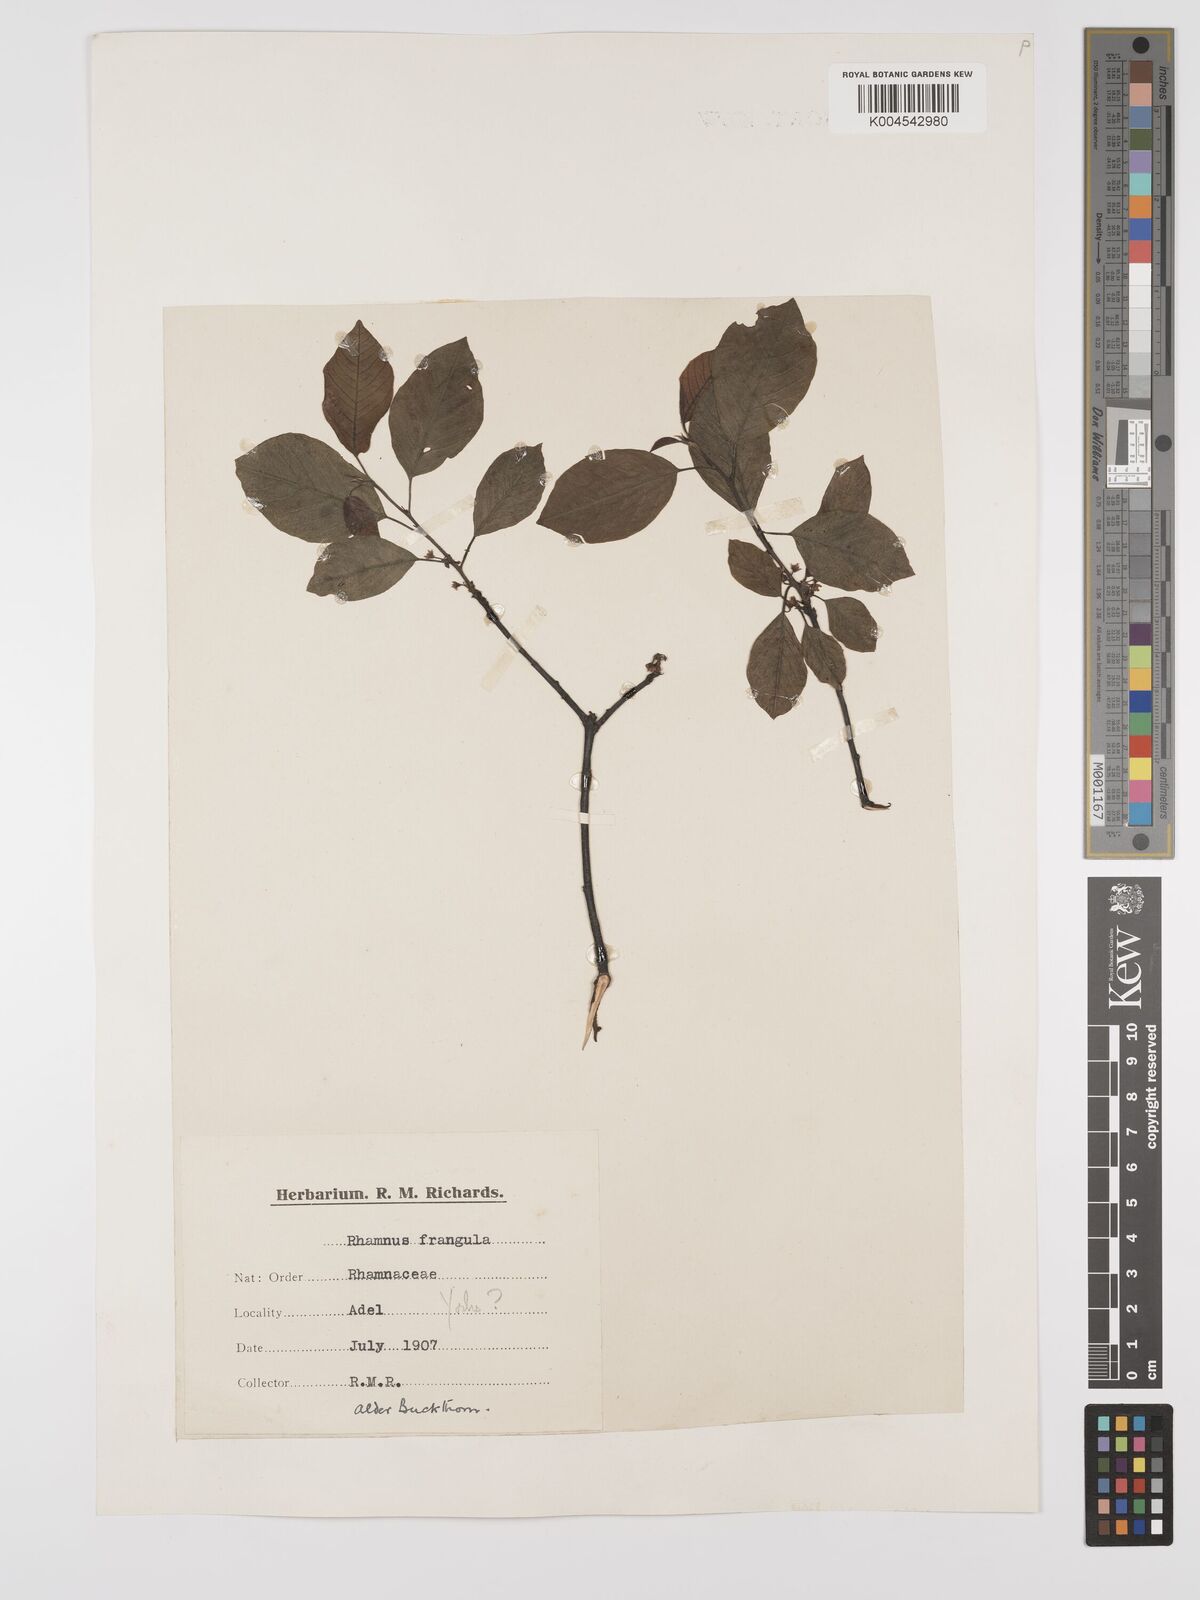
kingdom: Plantae
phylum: Tracheophyta
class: Magnoliopsida
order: Rosales
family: Rhamnaceae
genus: Frangula
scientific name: Frangula alnus
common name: Alder buckthorn
